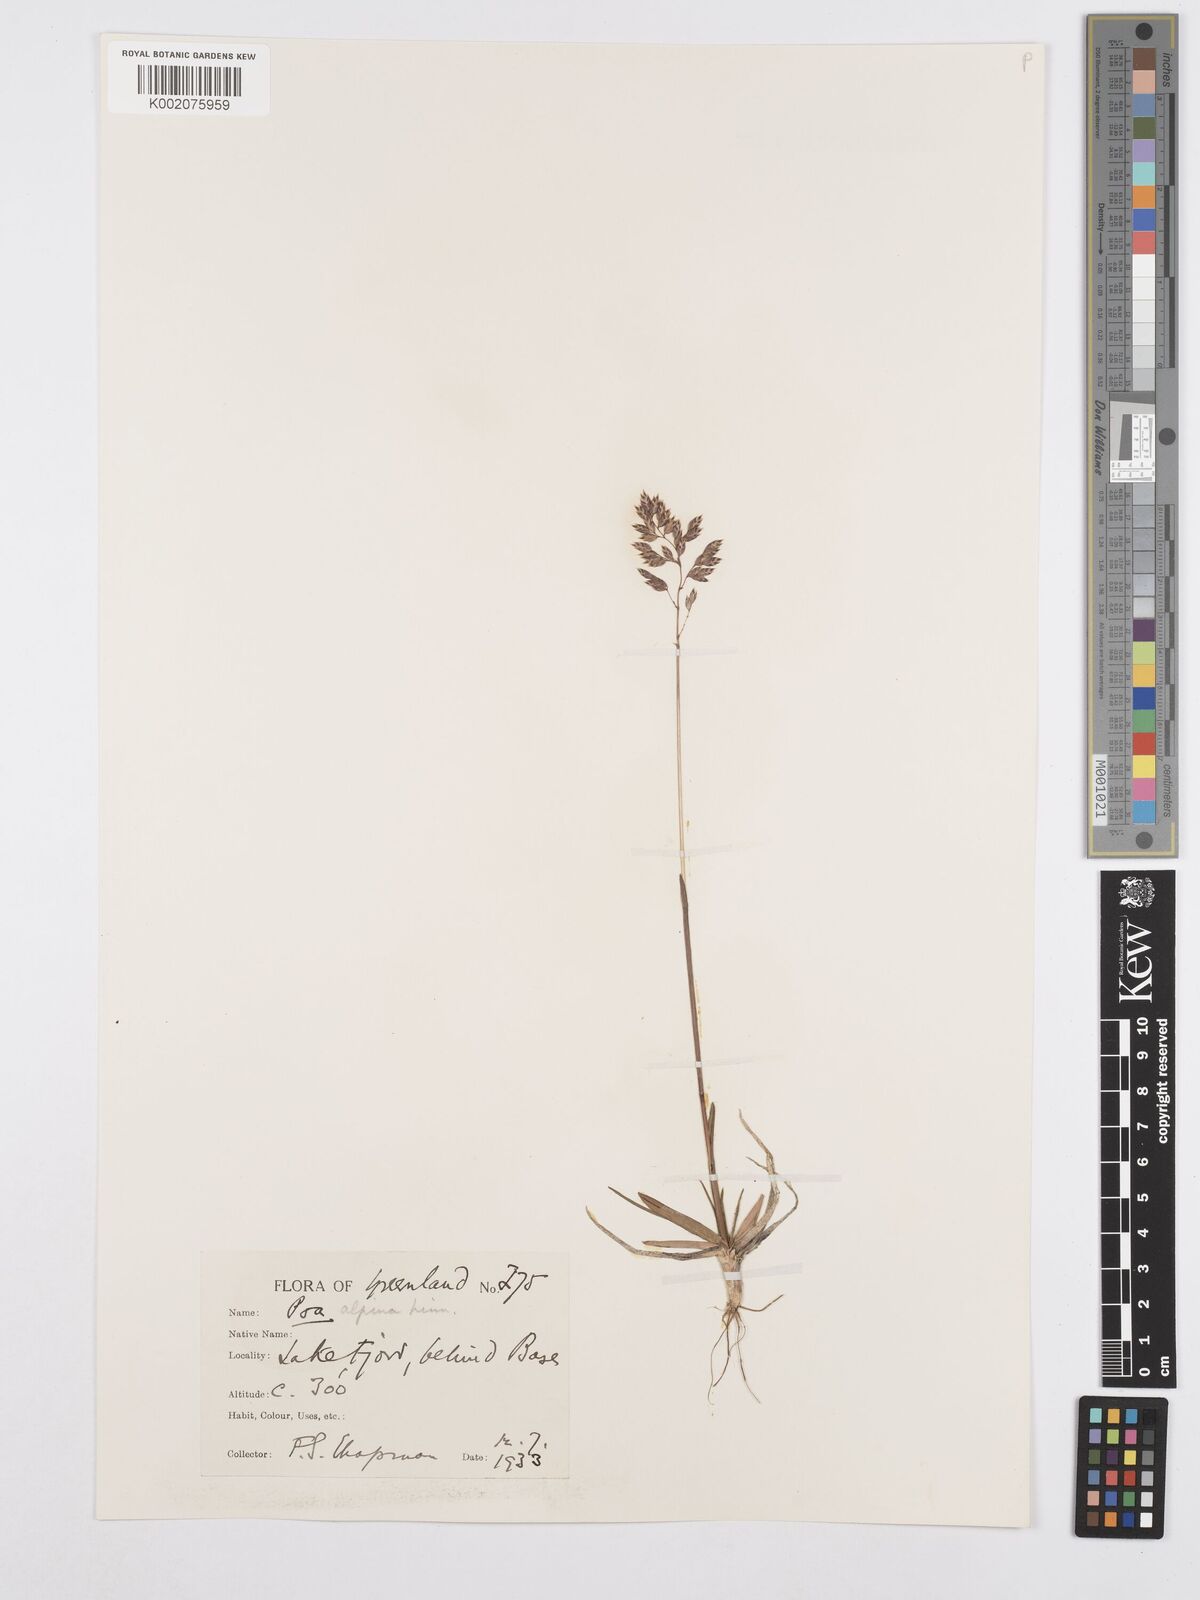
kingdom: Plantae
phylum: Tracheophyta
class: Liliopsida
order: Poales
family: Poaceae
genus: Poa
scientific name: Poa alpina
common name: Alpine bluegrass
